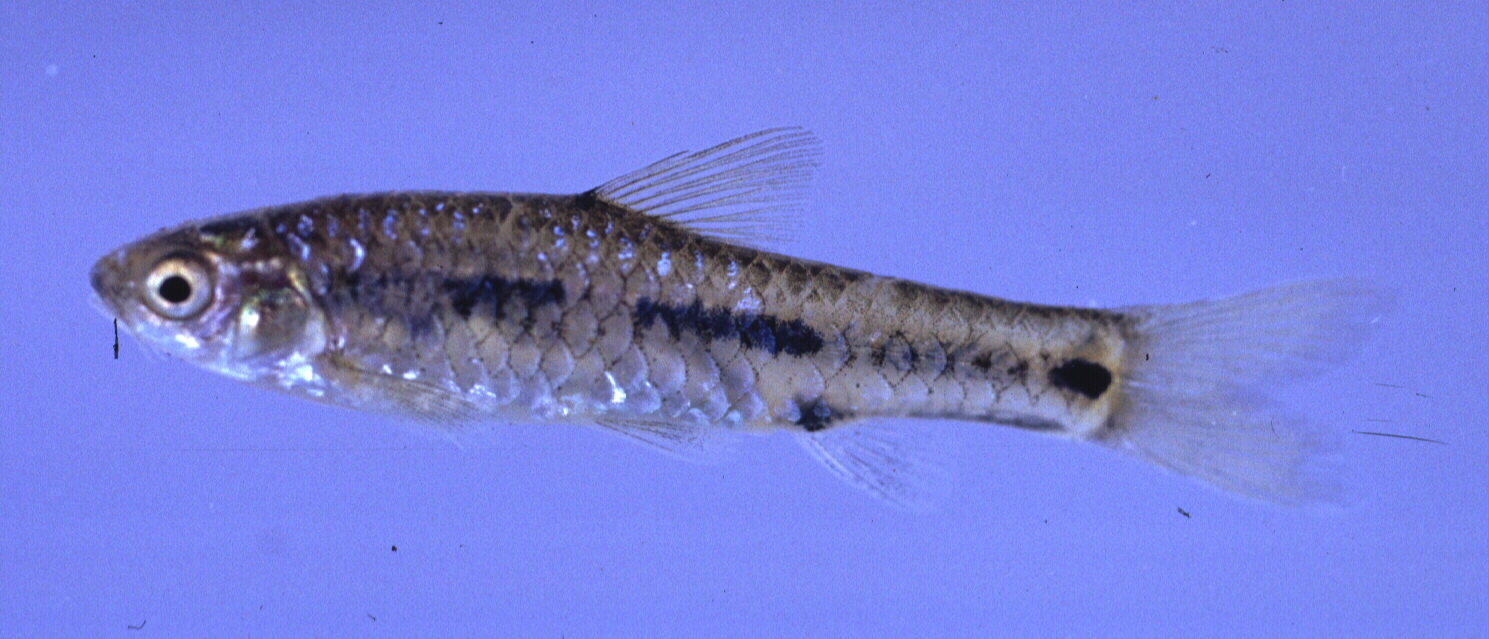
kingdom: Animalia
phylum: Chordata
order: Cypriniformes
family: Cyprinidae
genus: Enteromius
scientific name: Enteromius atkinsoni
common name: Dash-dot barb
